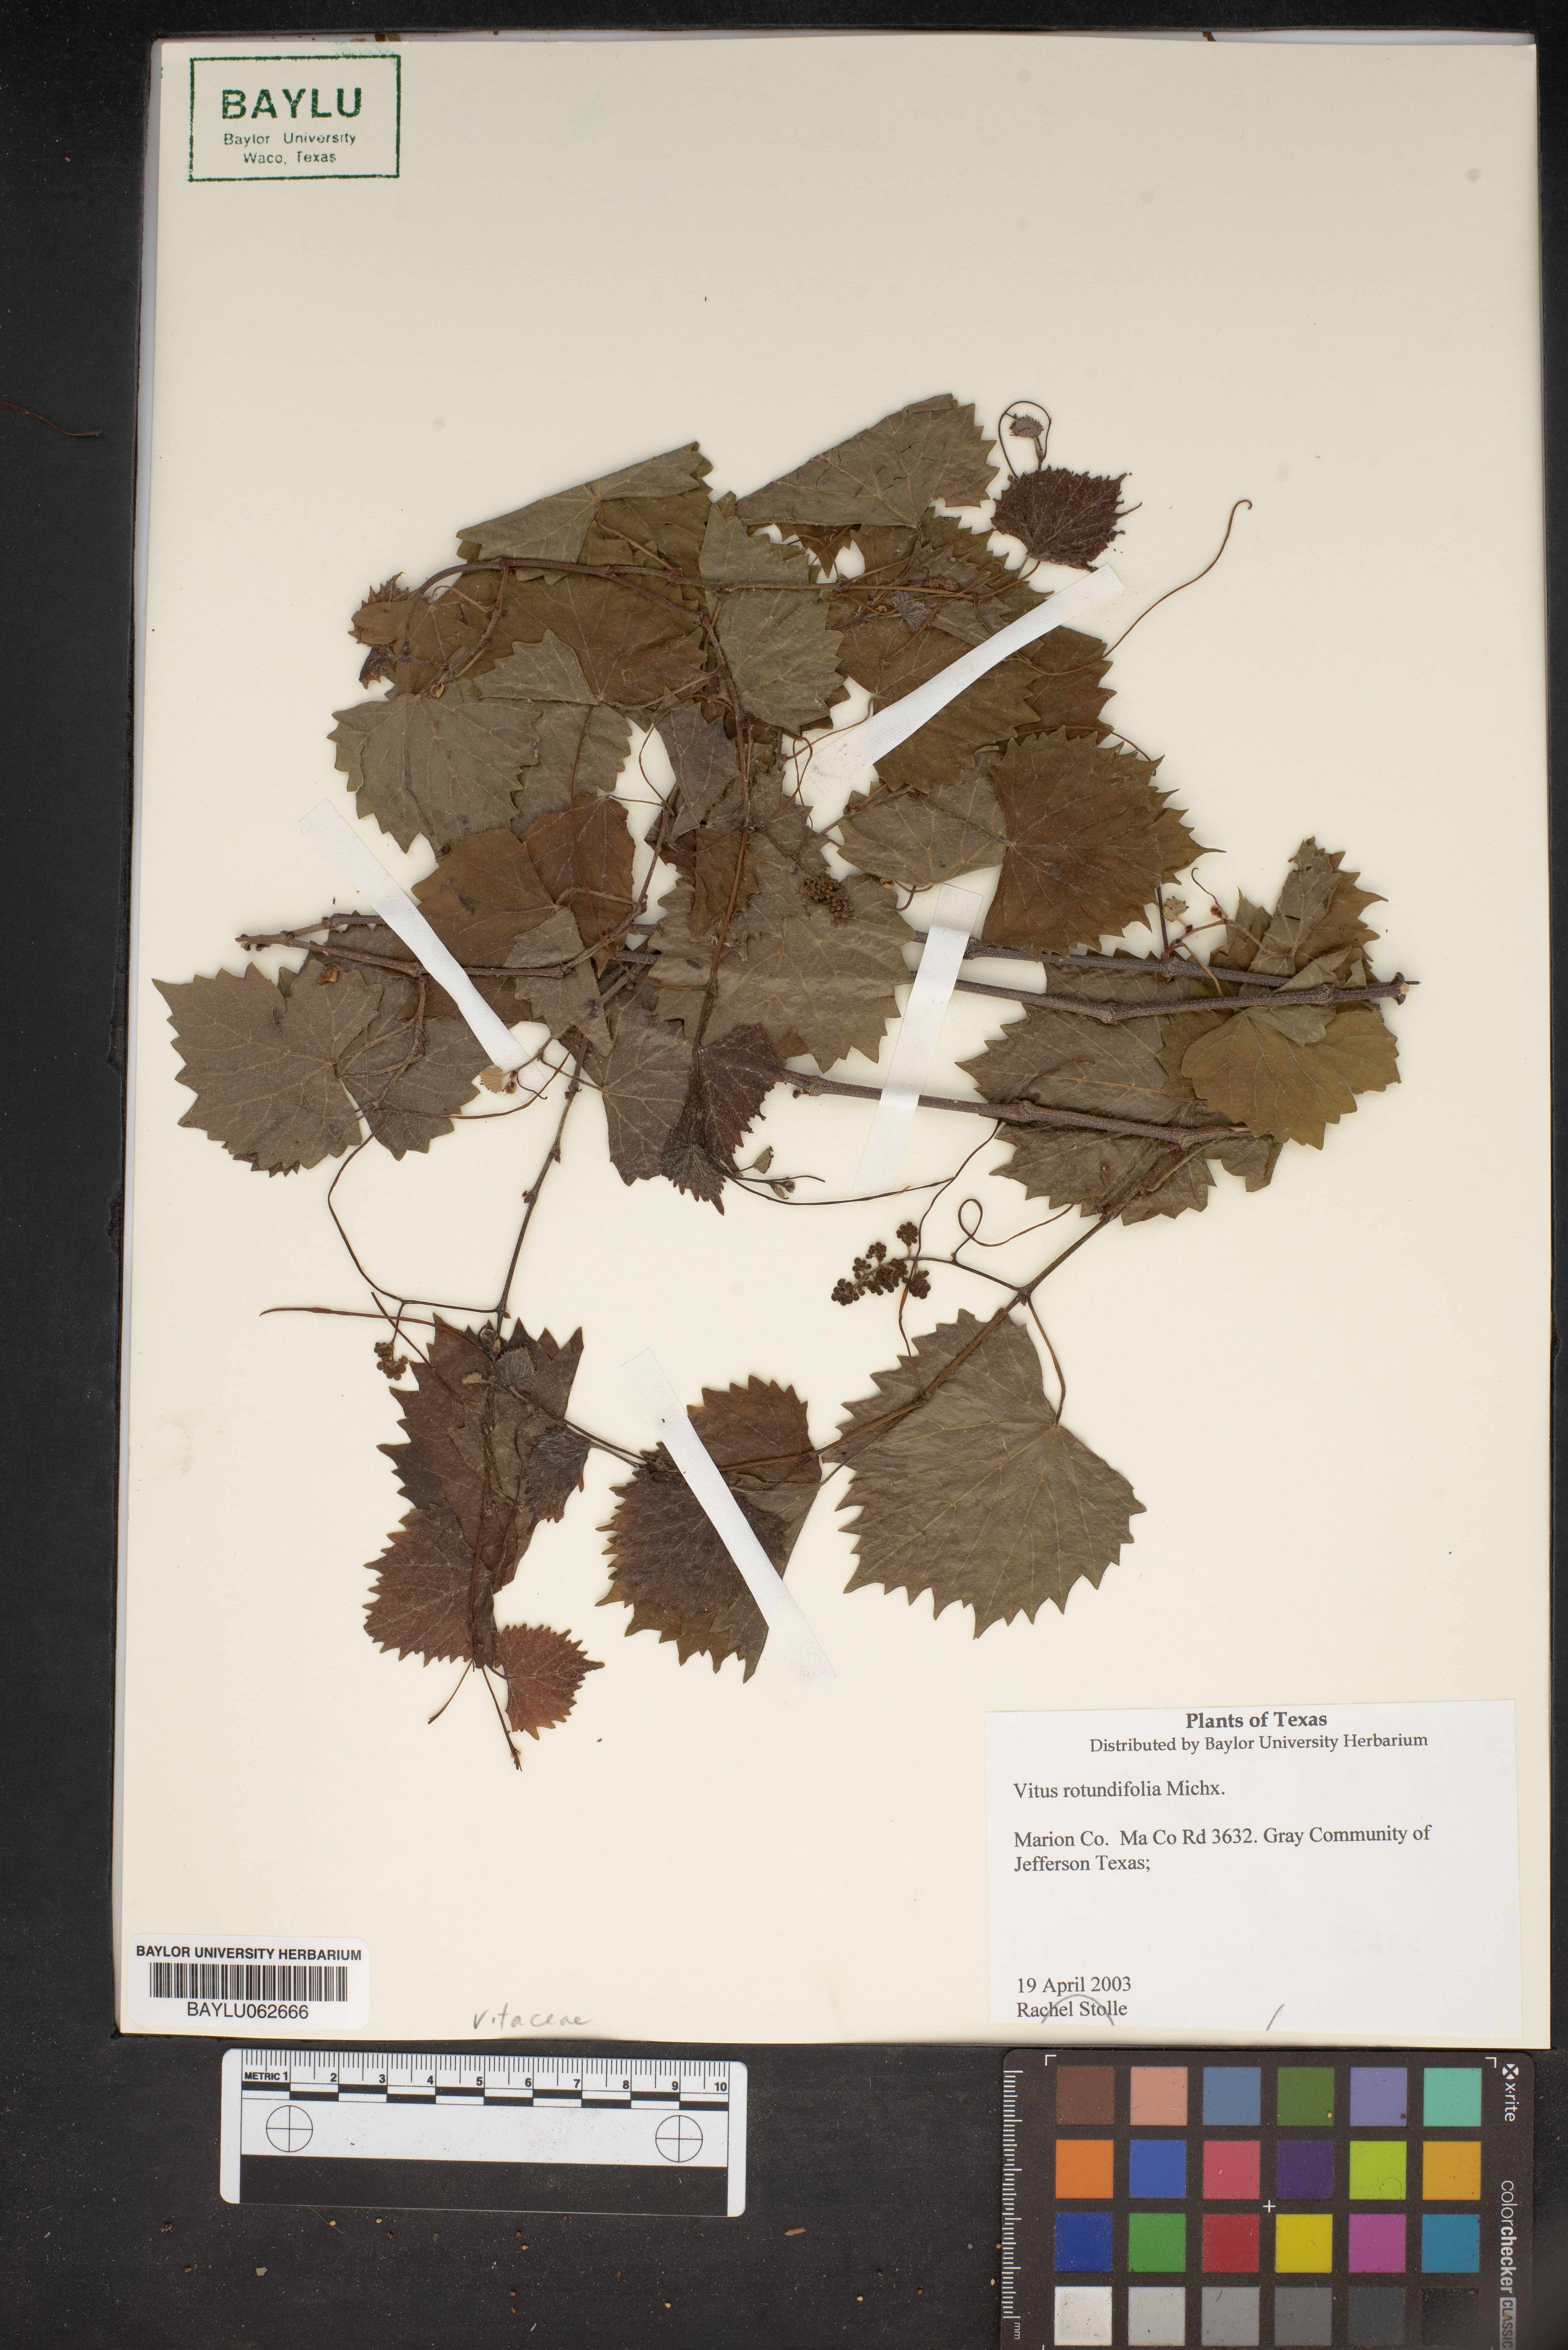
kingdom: Plantae
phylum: Tracheophyta
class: Magnoliopsida
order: Vitales
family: Vitaceae
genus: Vitis
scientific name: Vitis rotundifolia
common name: Muscadine grape
